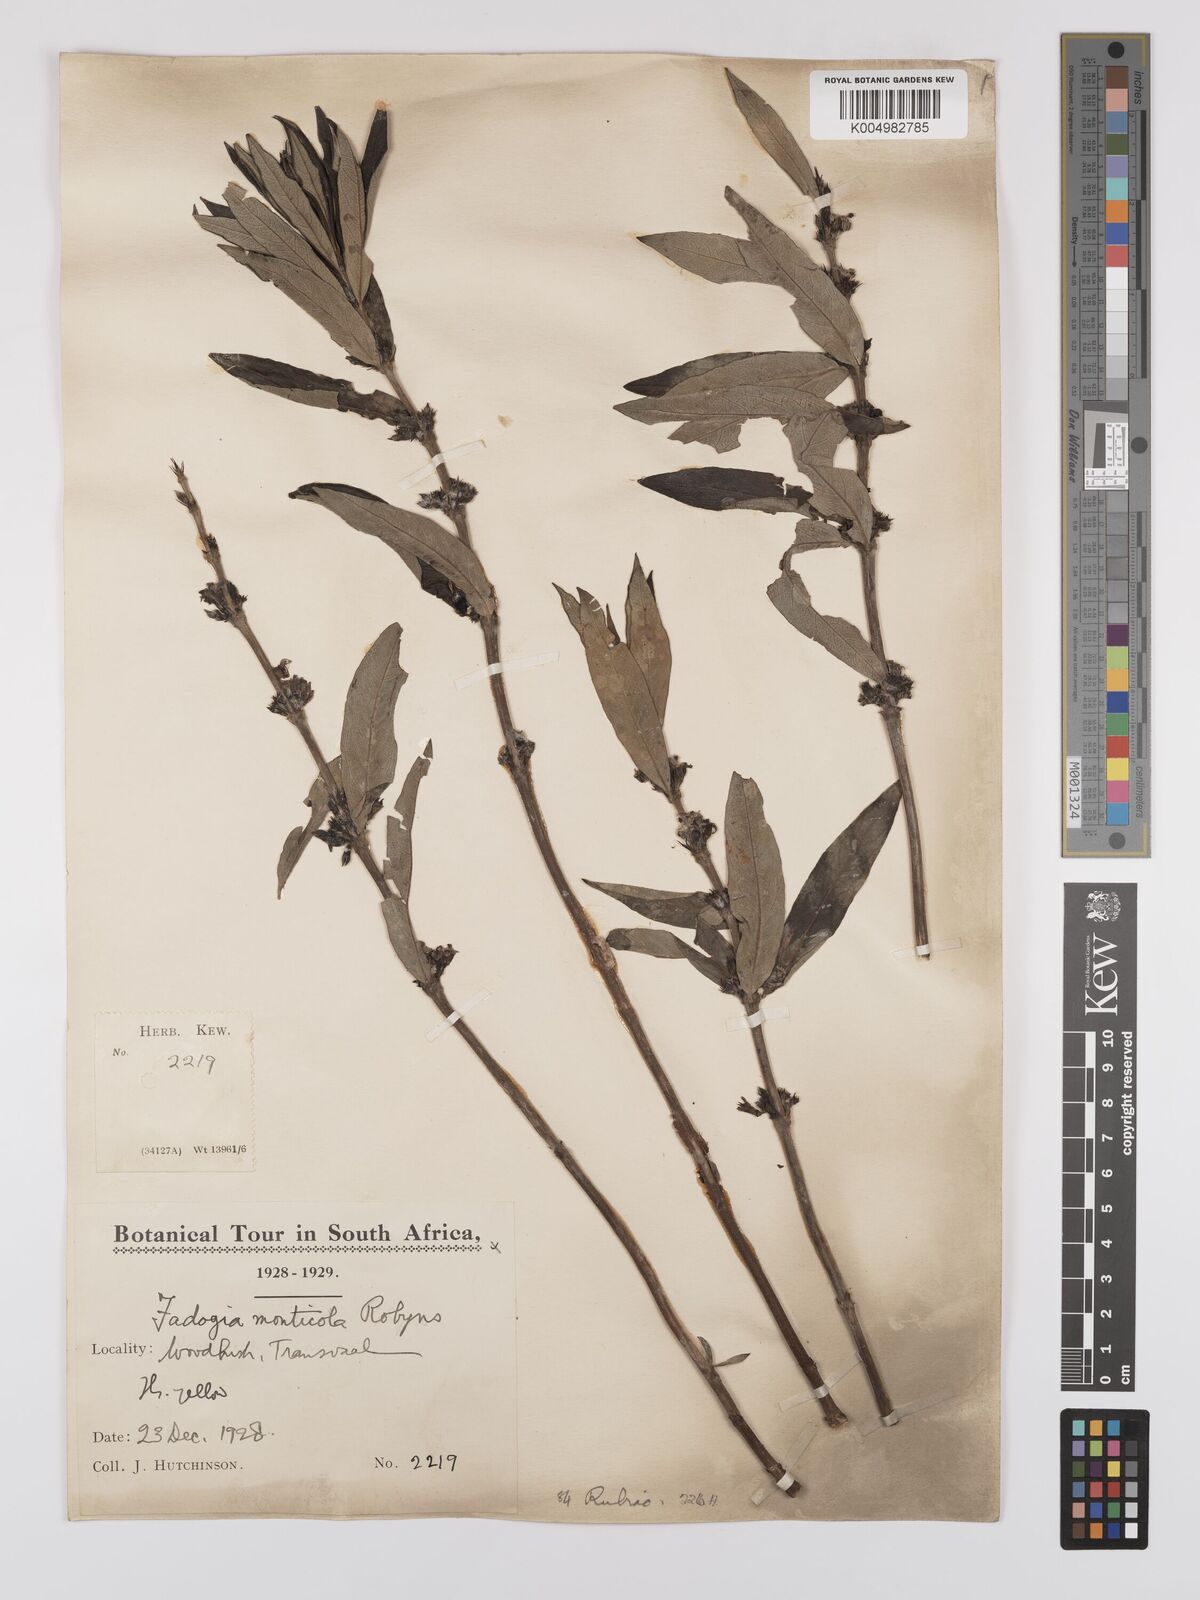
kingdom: Plantae
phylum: Tracheophyta
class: Magnoliopsida
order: Gentianales
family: Rubiaceae
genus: Fadogia
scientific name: Fadogia homblei
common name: Wild date
